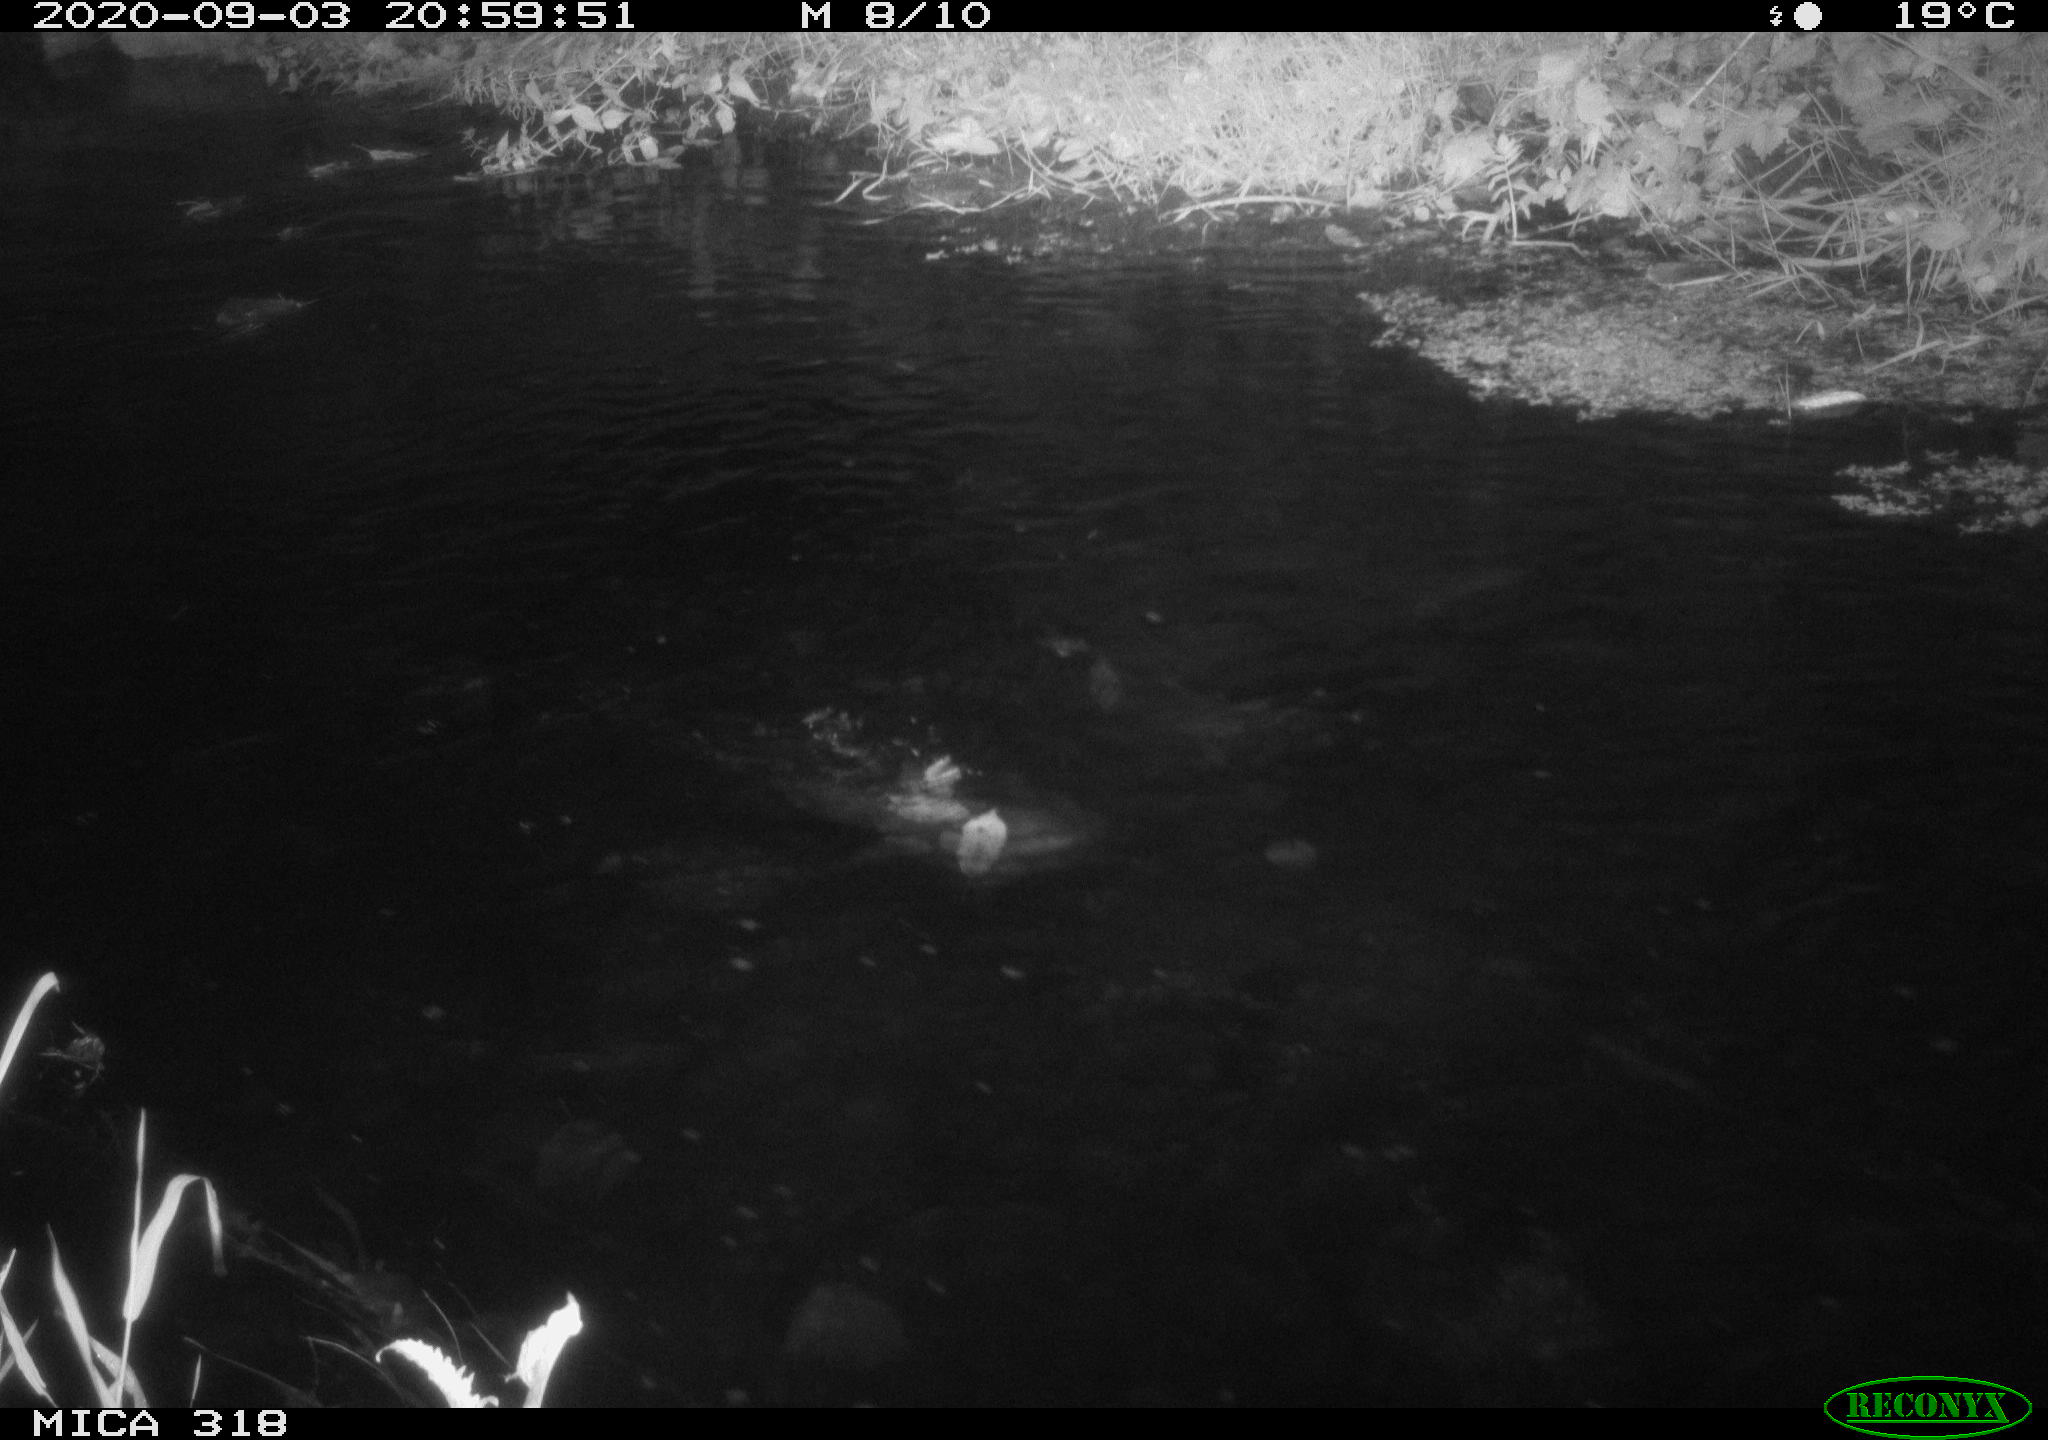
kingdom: Animalia
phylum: Chordata
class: Aves
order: Anseriformes
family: Anatidae
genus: Anas
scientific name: Anas platyrhynchos
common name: Mallard
